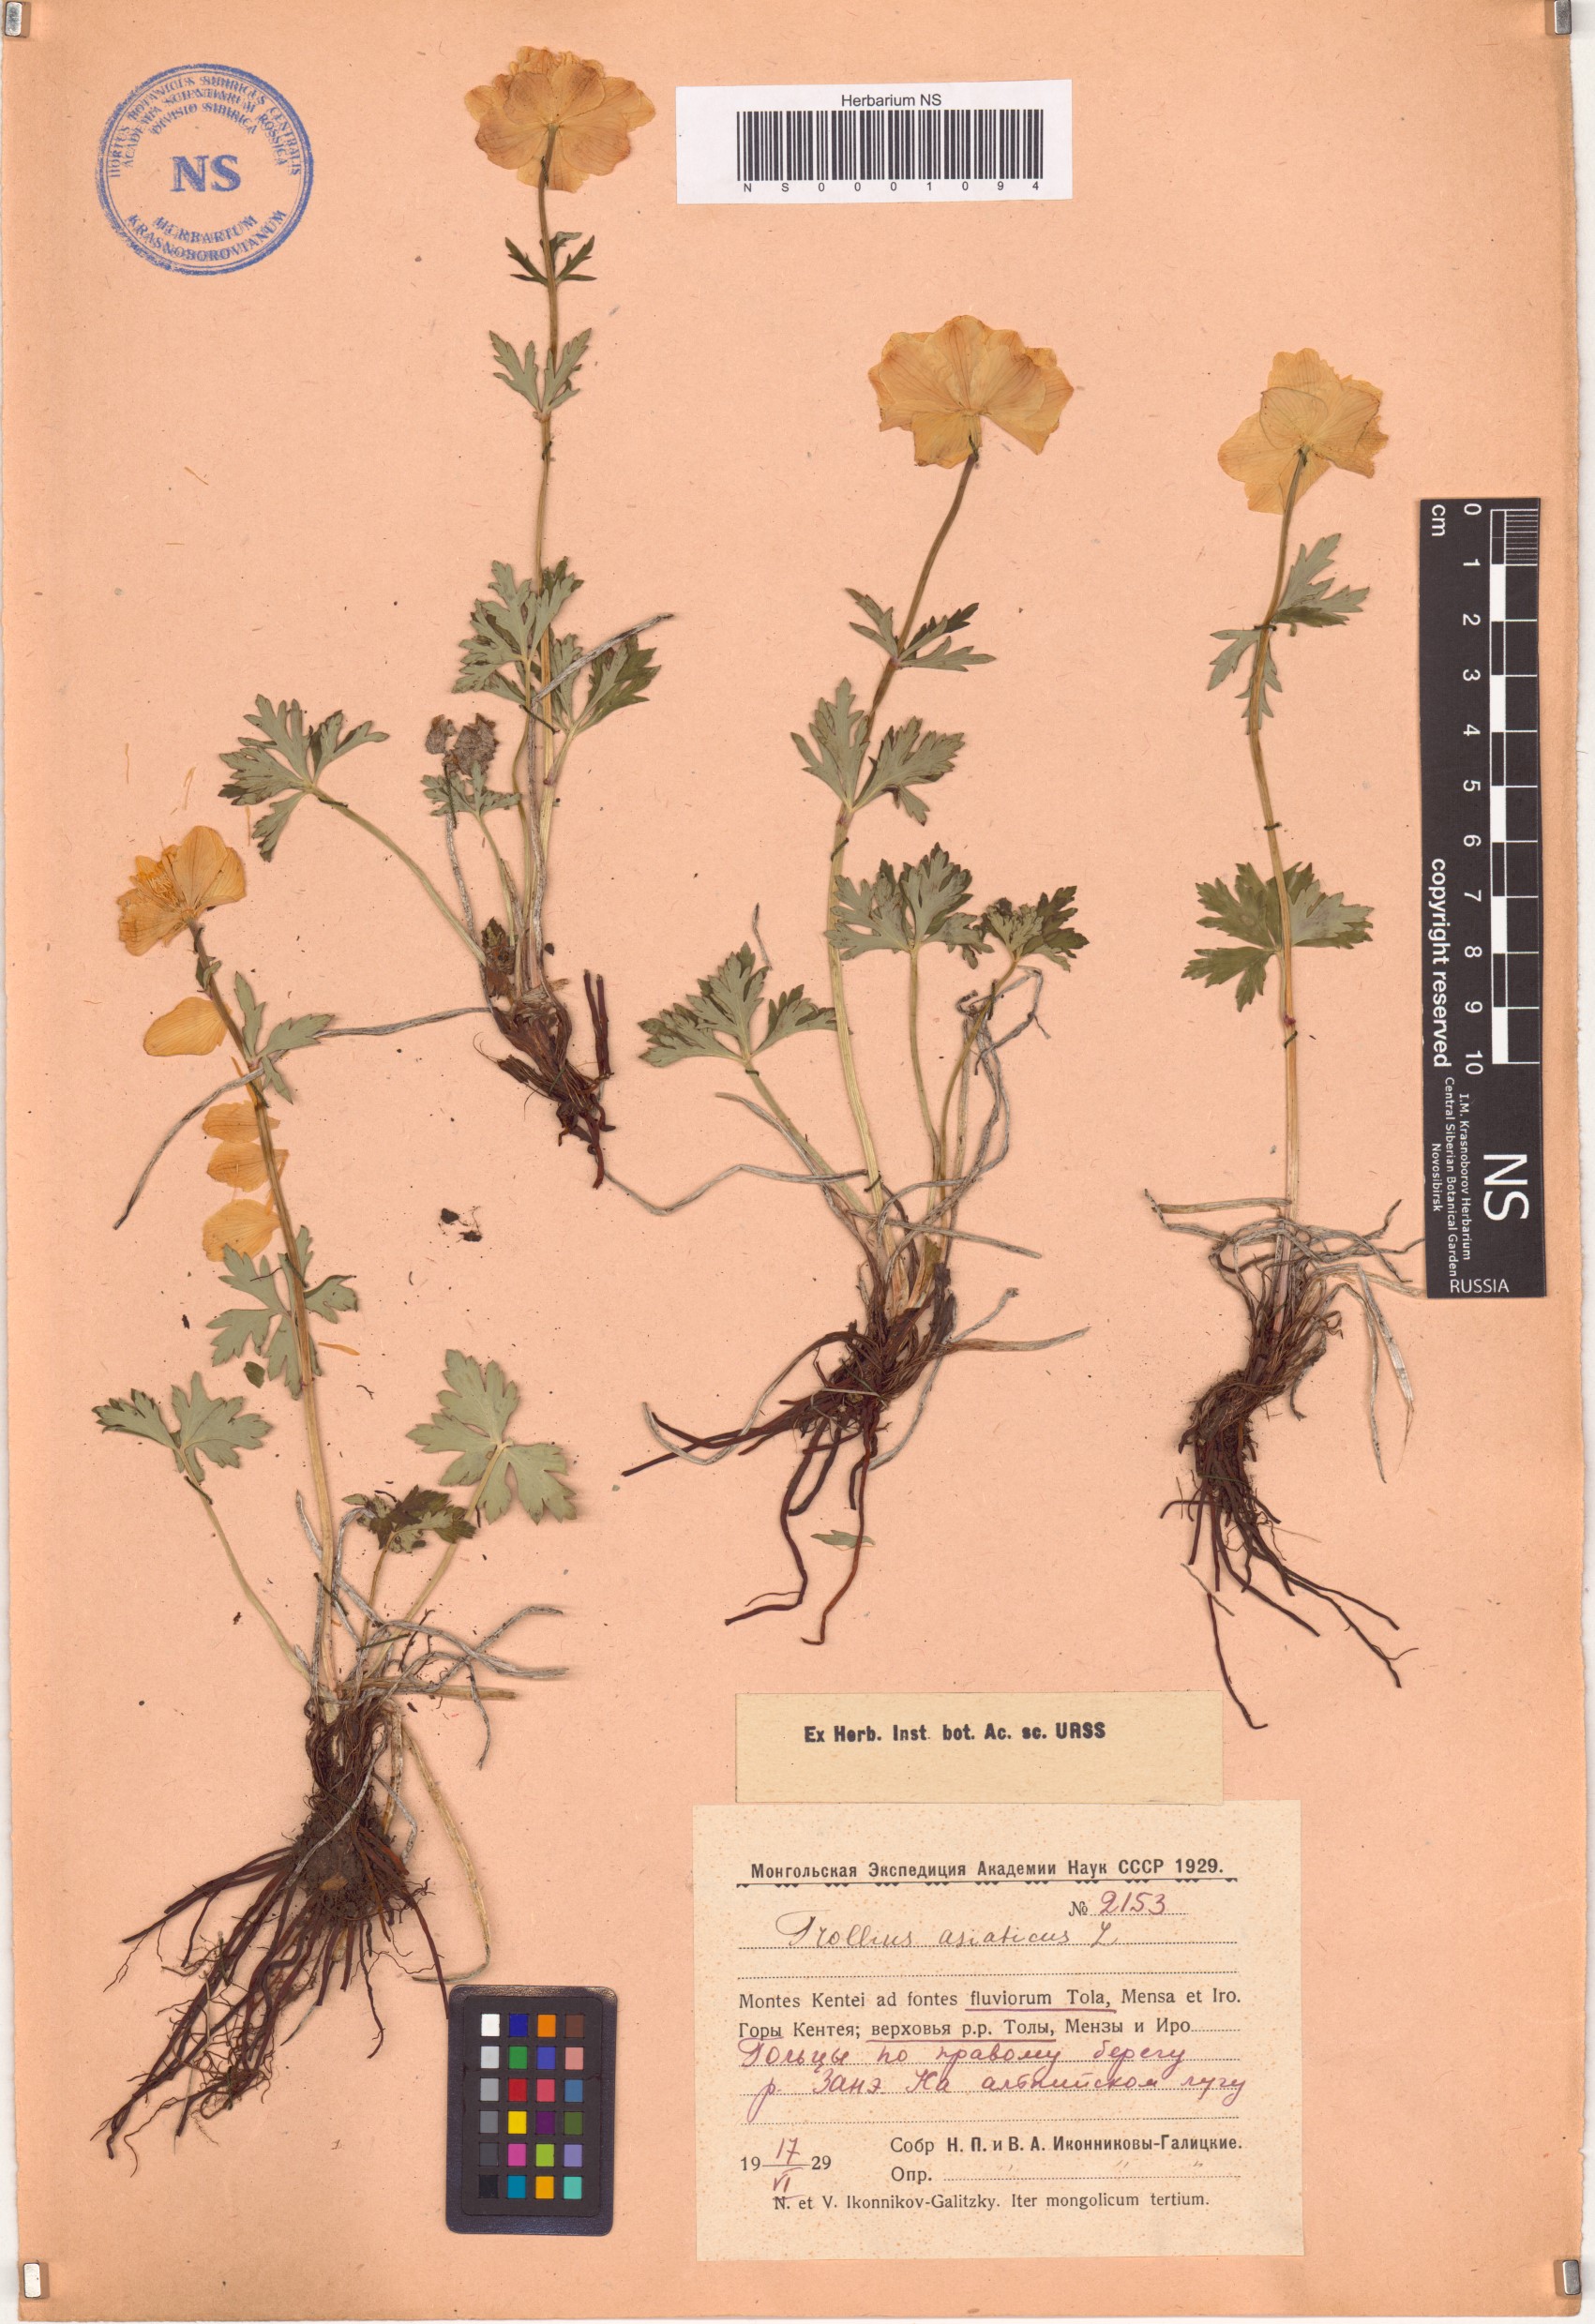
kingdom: Plantae
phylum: Tracheophyta
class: Magnoliopsida
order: Ranunculales
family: Ranunculaceae
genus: Trollius
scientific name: Trollius asiaticus
